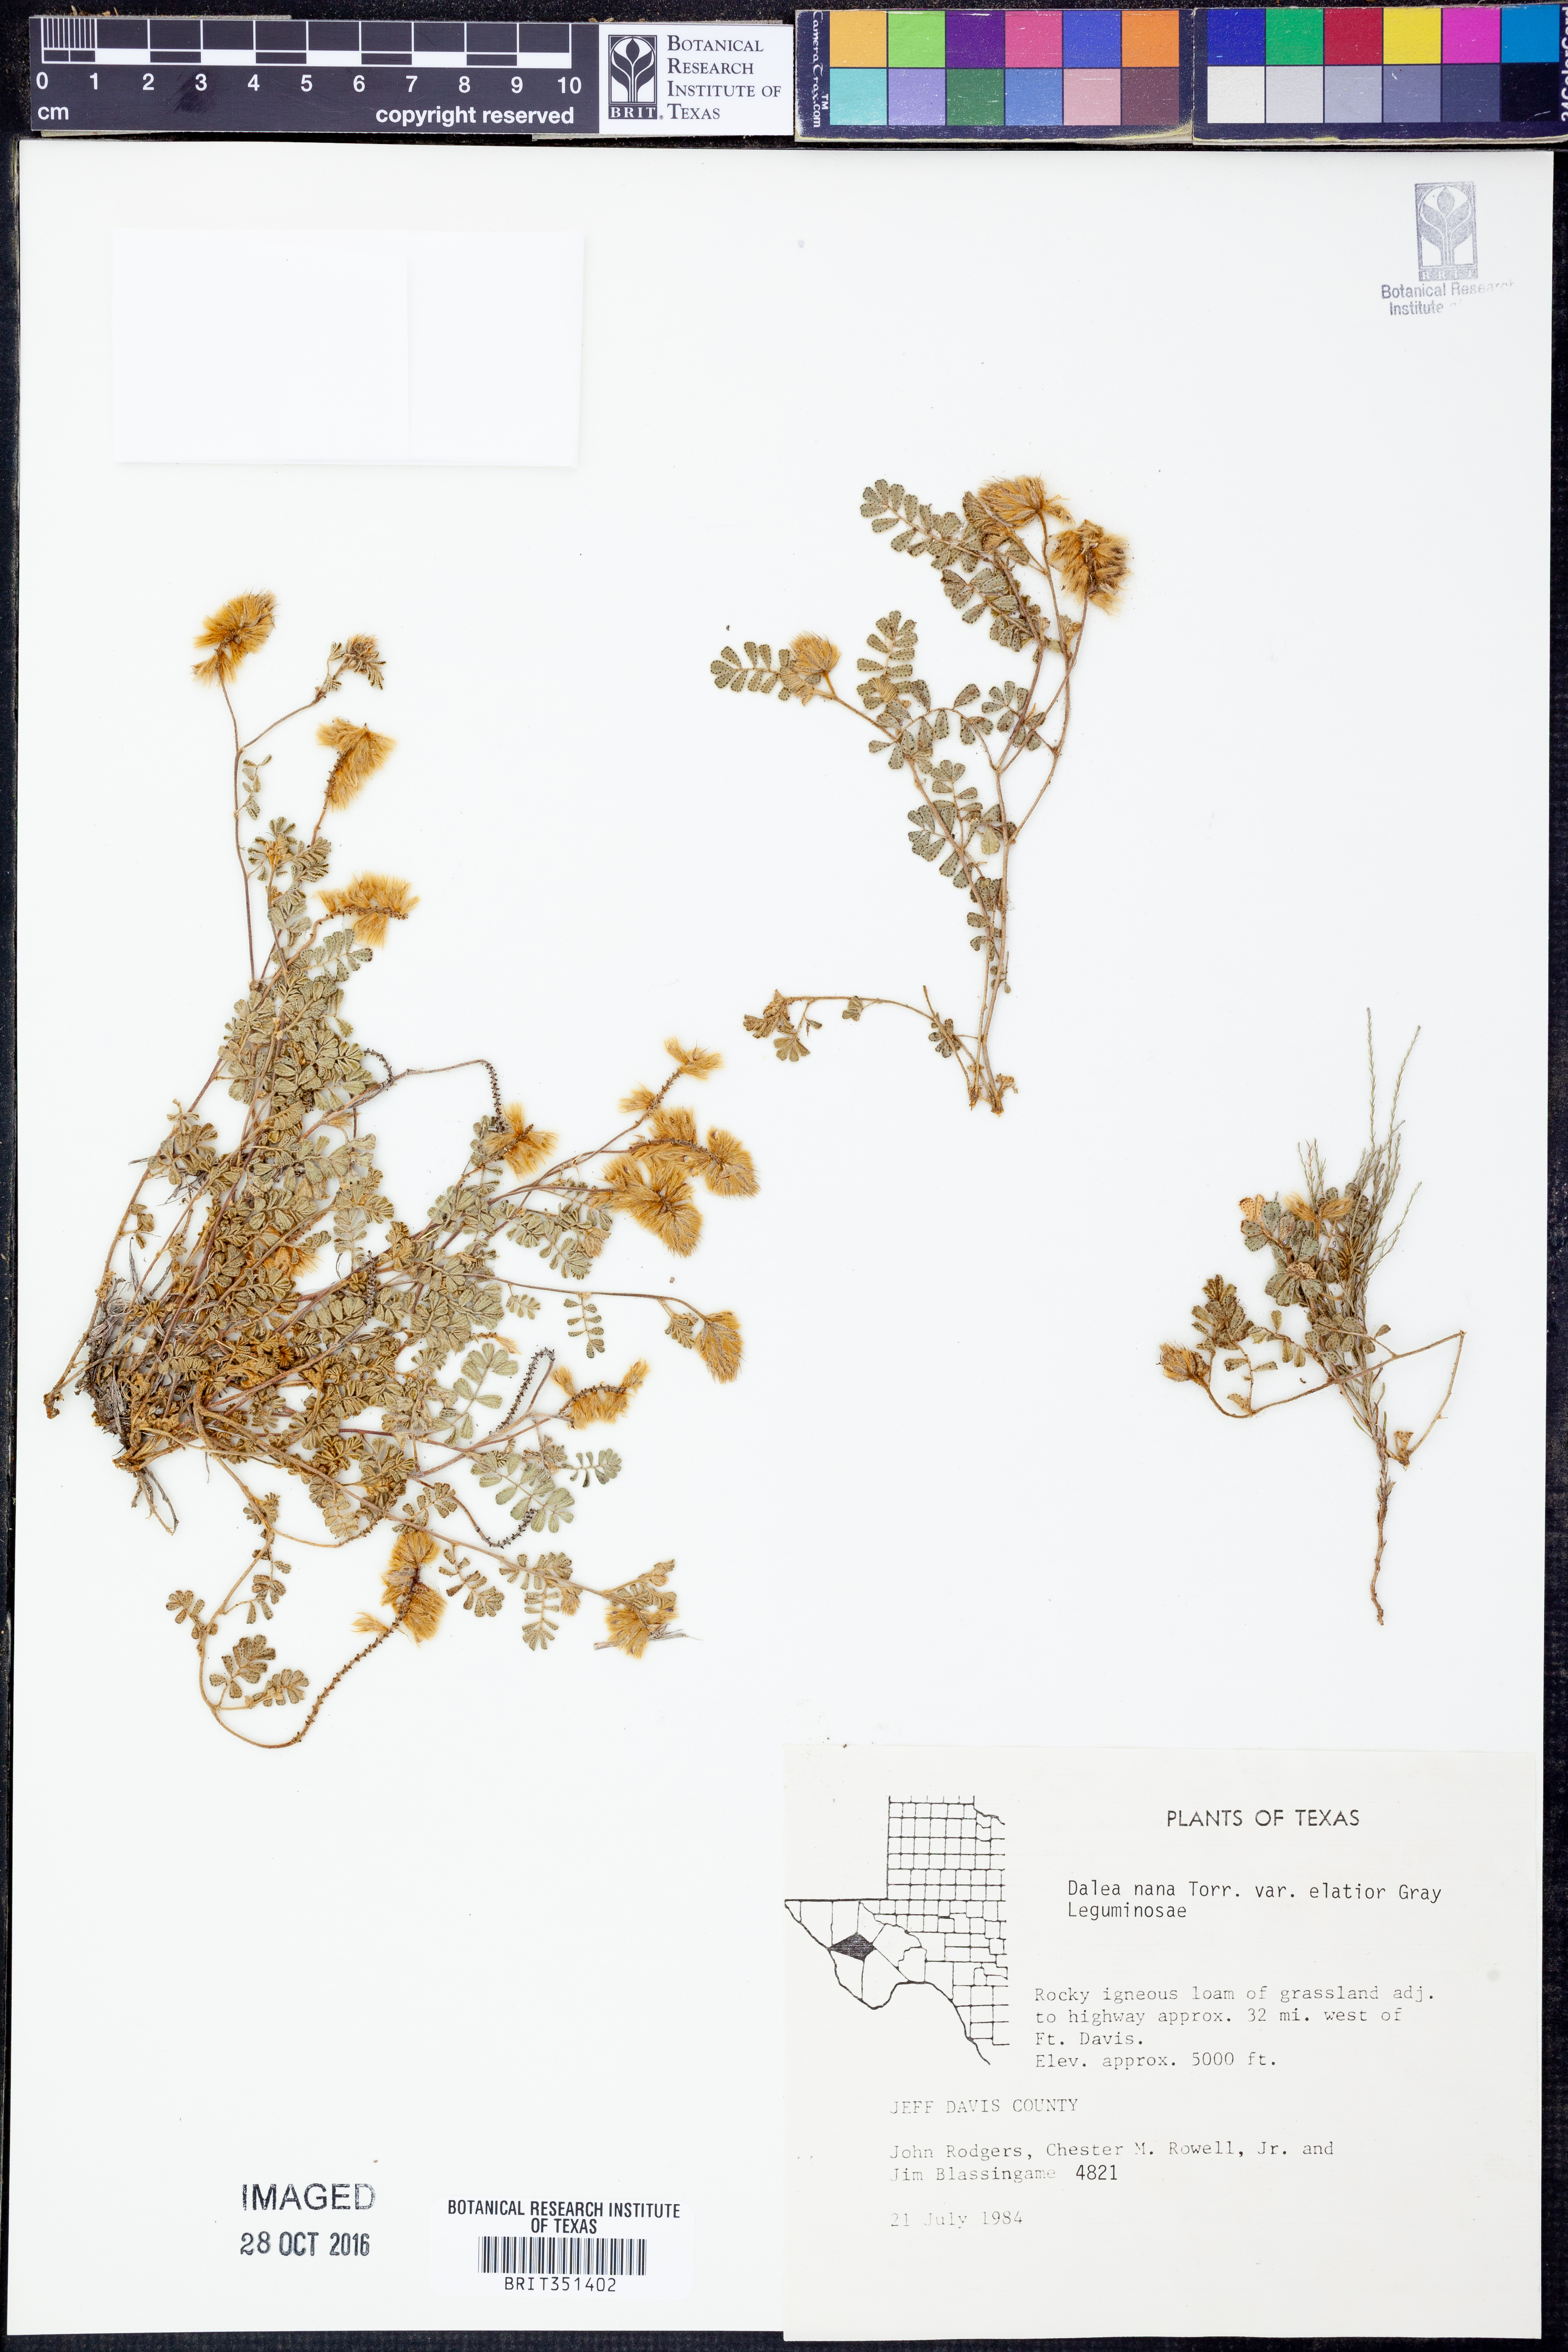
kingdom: Plantae
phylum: Tracheophyta
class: Magnoliopsida
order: Fabales
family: Fabaceae
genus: Dalea
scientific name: Dalea nana
